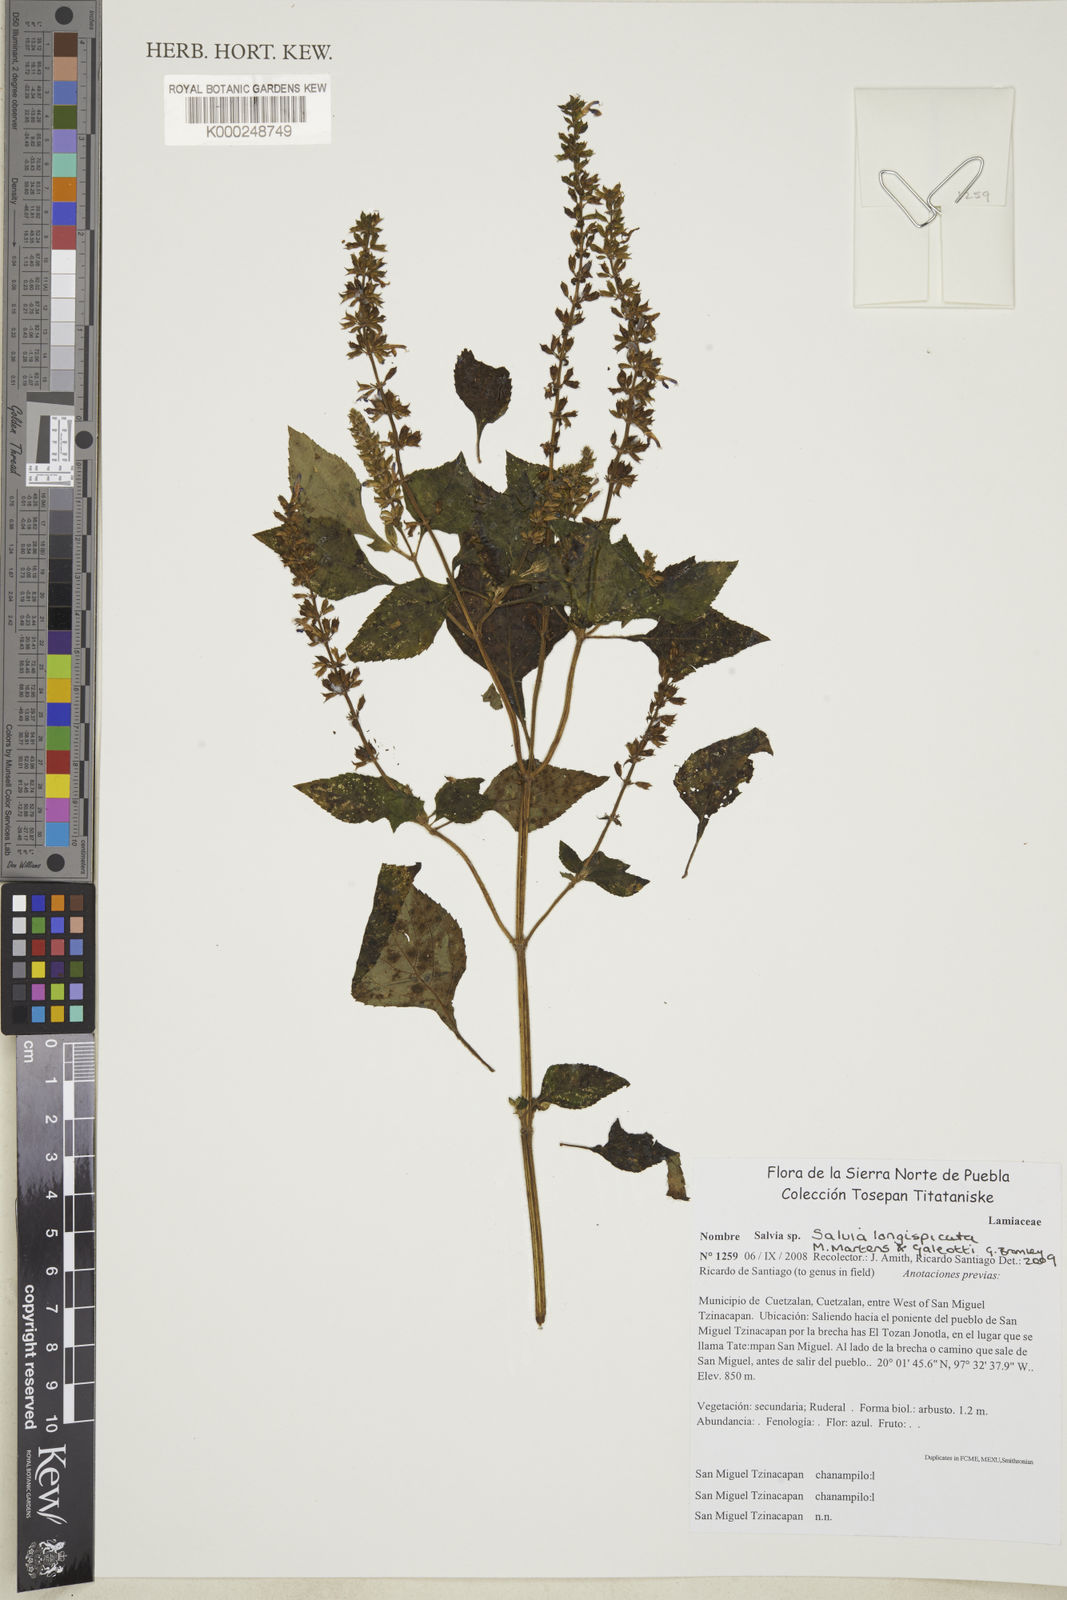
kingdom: Plantae
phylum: Tracheophyta
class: Magnoliopsida
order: Lamiales
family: Lamiaceae
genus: Salvia
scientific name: Salvia longispicata
